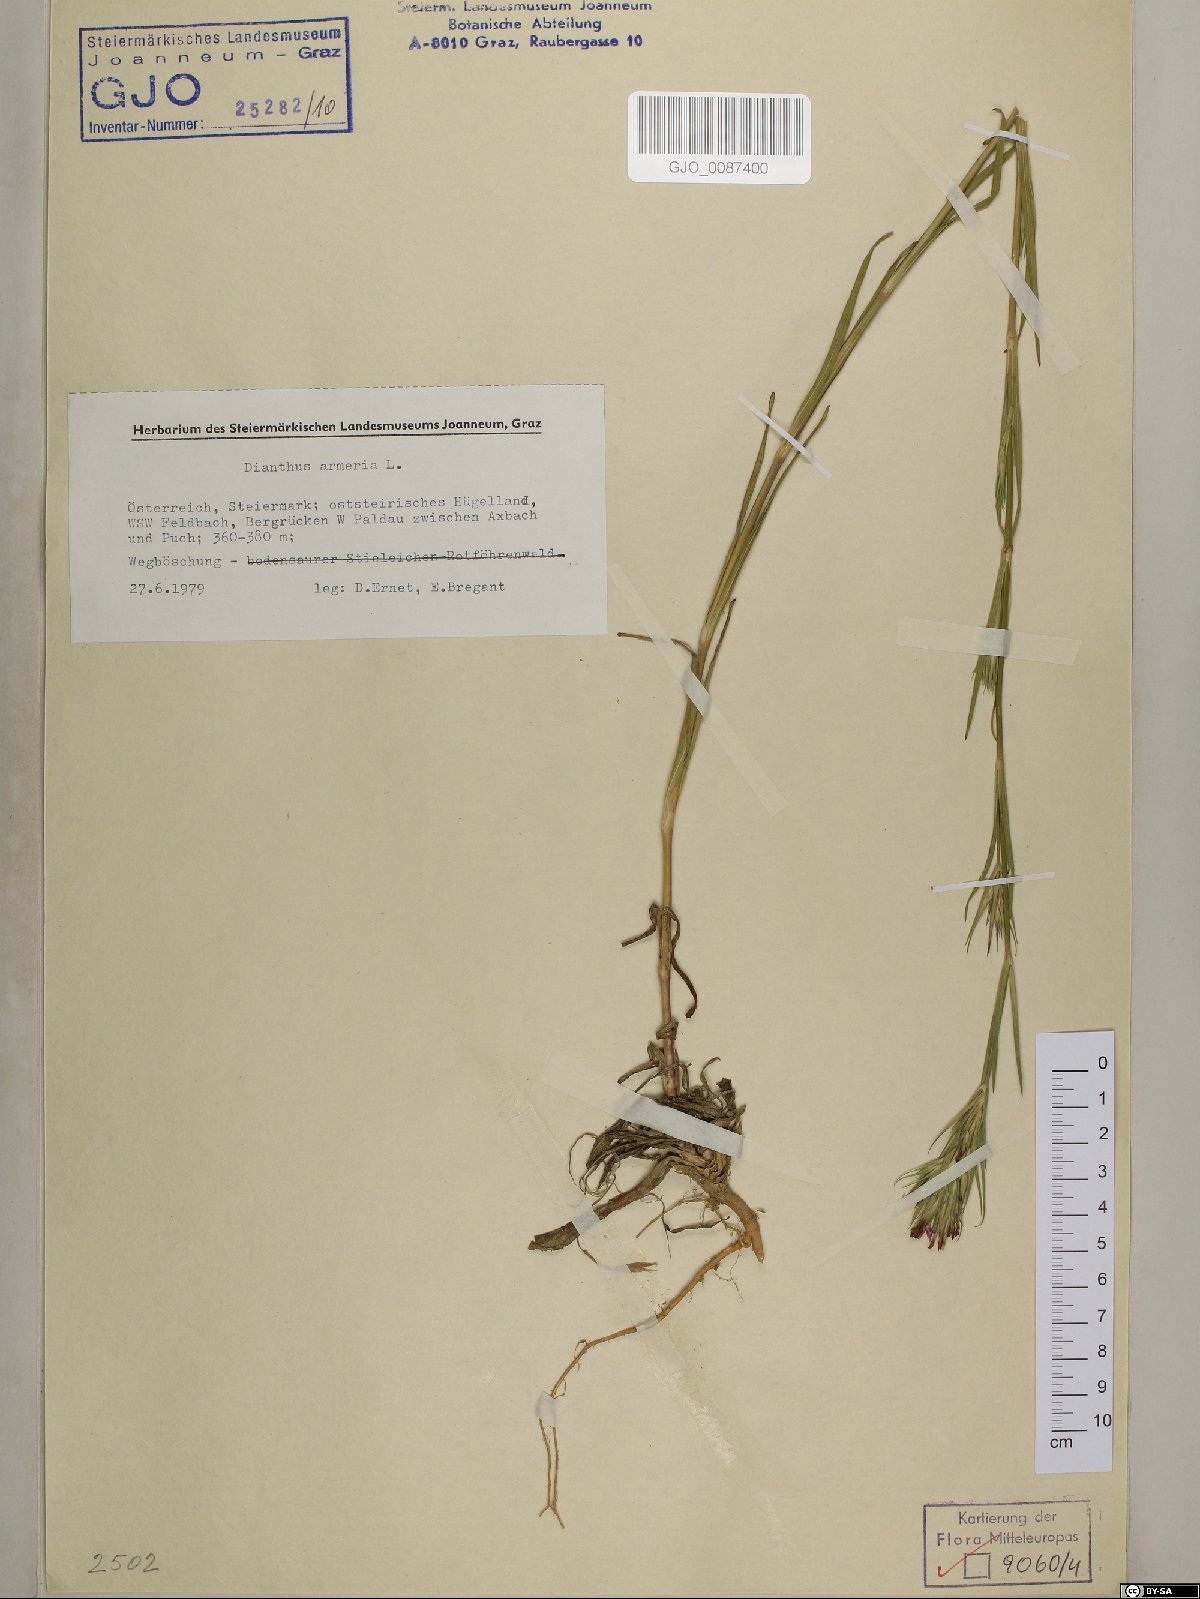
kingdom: Plantae
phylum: Tracheophyta
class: Magnoliopsida
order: Caryophyllales
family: Caryophyllaceae
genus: Dianthus
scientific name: Dianthus armeria
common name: Deptford pink
